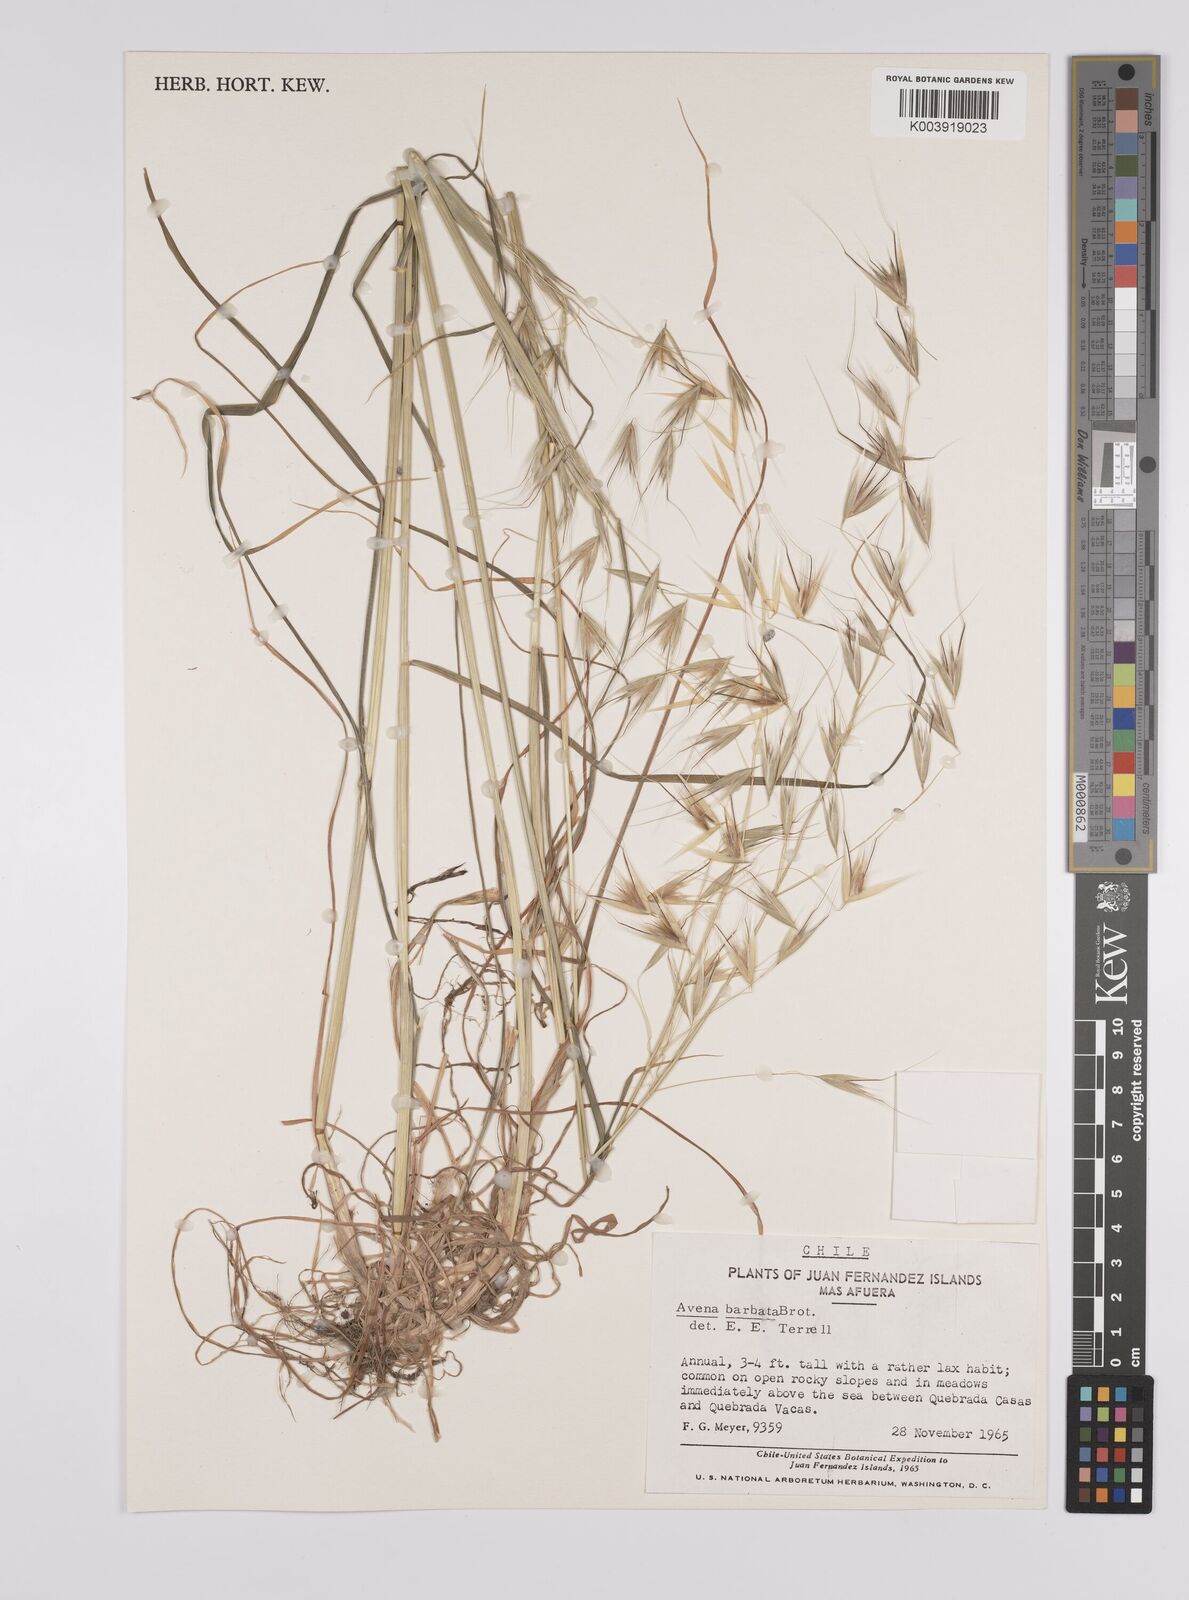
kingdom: Plantae
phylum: Tracheophyta
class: Liliopsida
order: Poales
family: Poaceae
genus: Avena
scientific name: Avena barbata
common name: Slender oat
